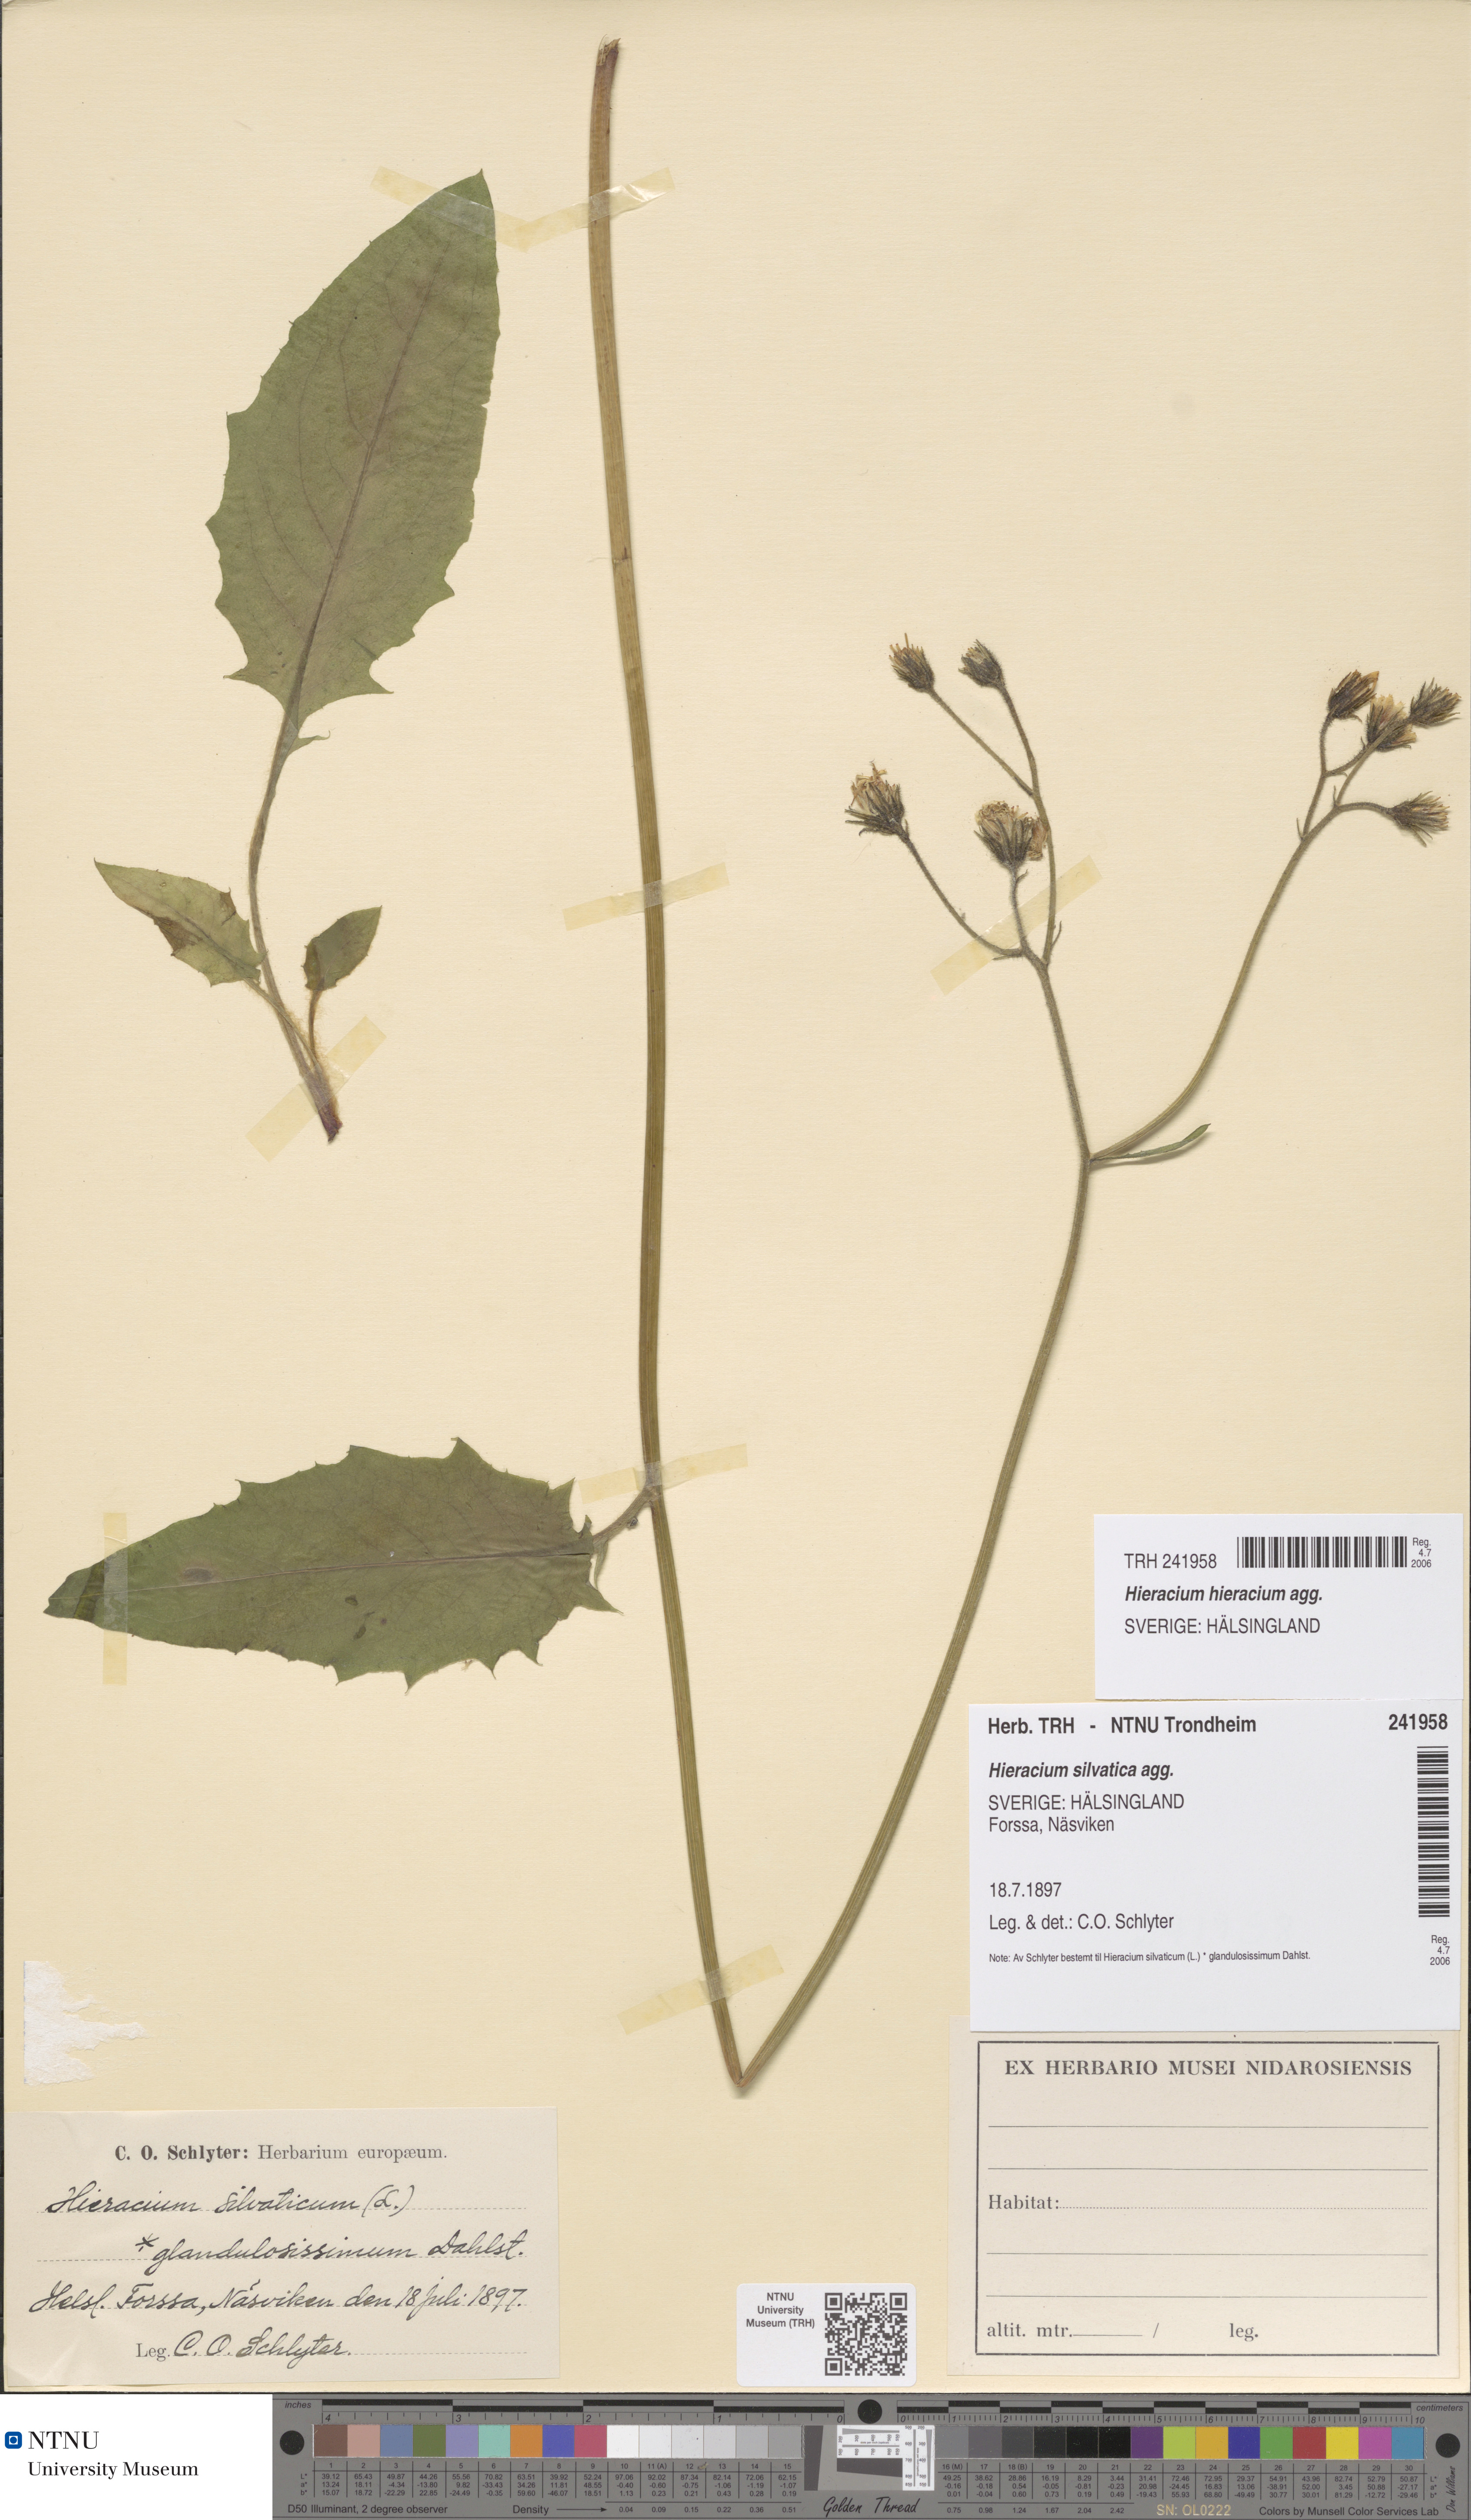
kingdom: Plantae
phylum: Tracheophyta
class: Magnoliopsida
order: Asterales
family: Asteraceae
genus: Hieracium
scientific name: Hieracium
